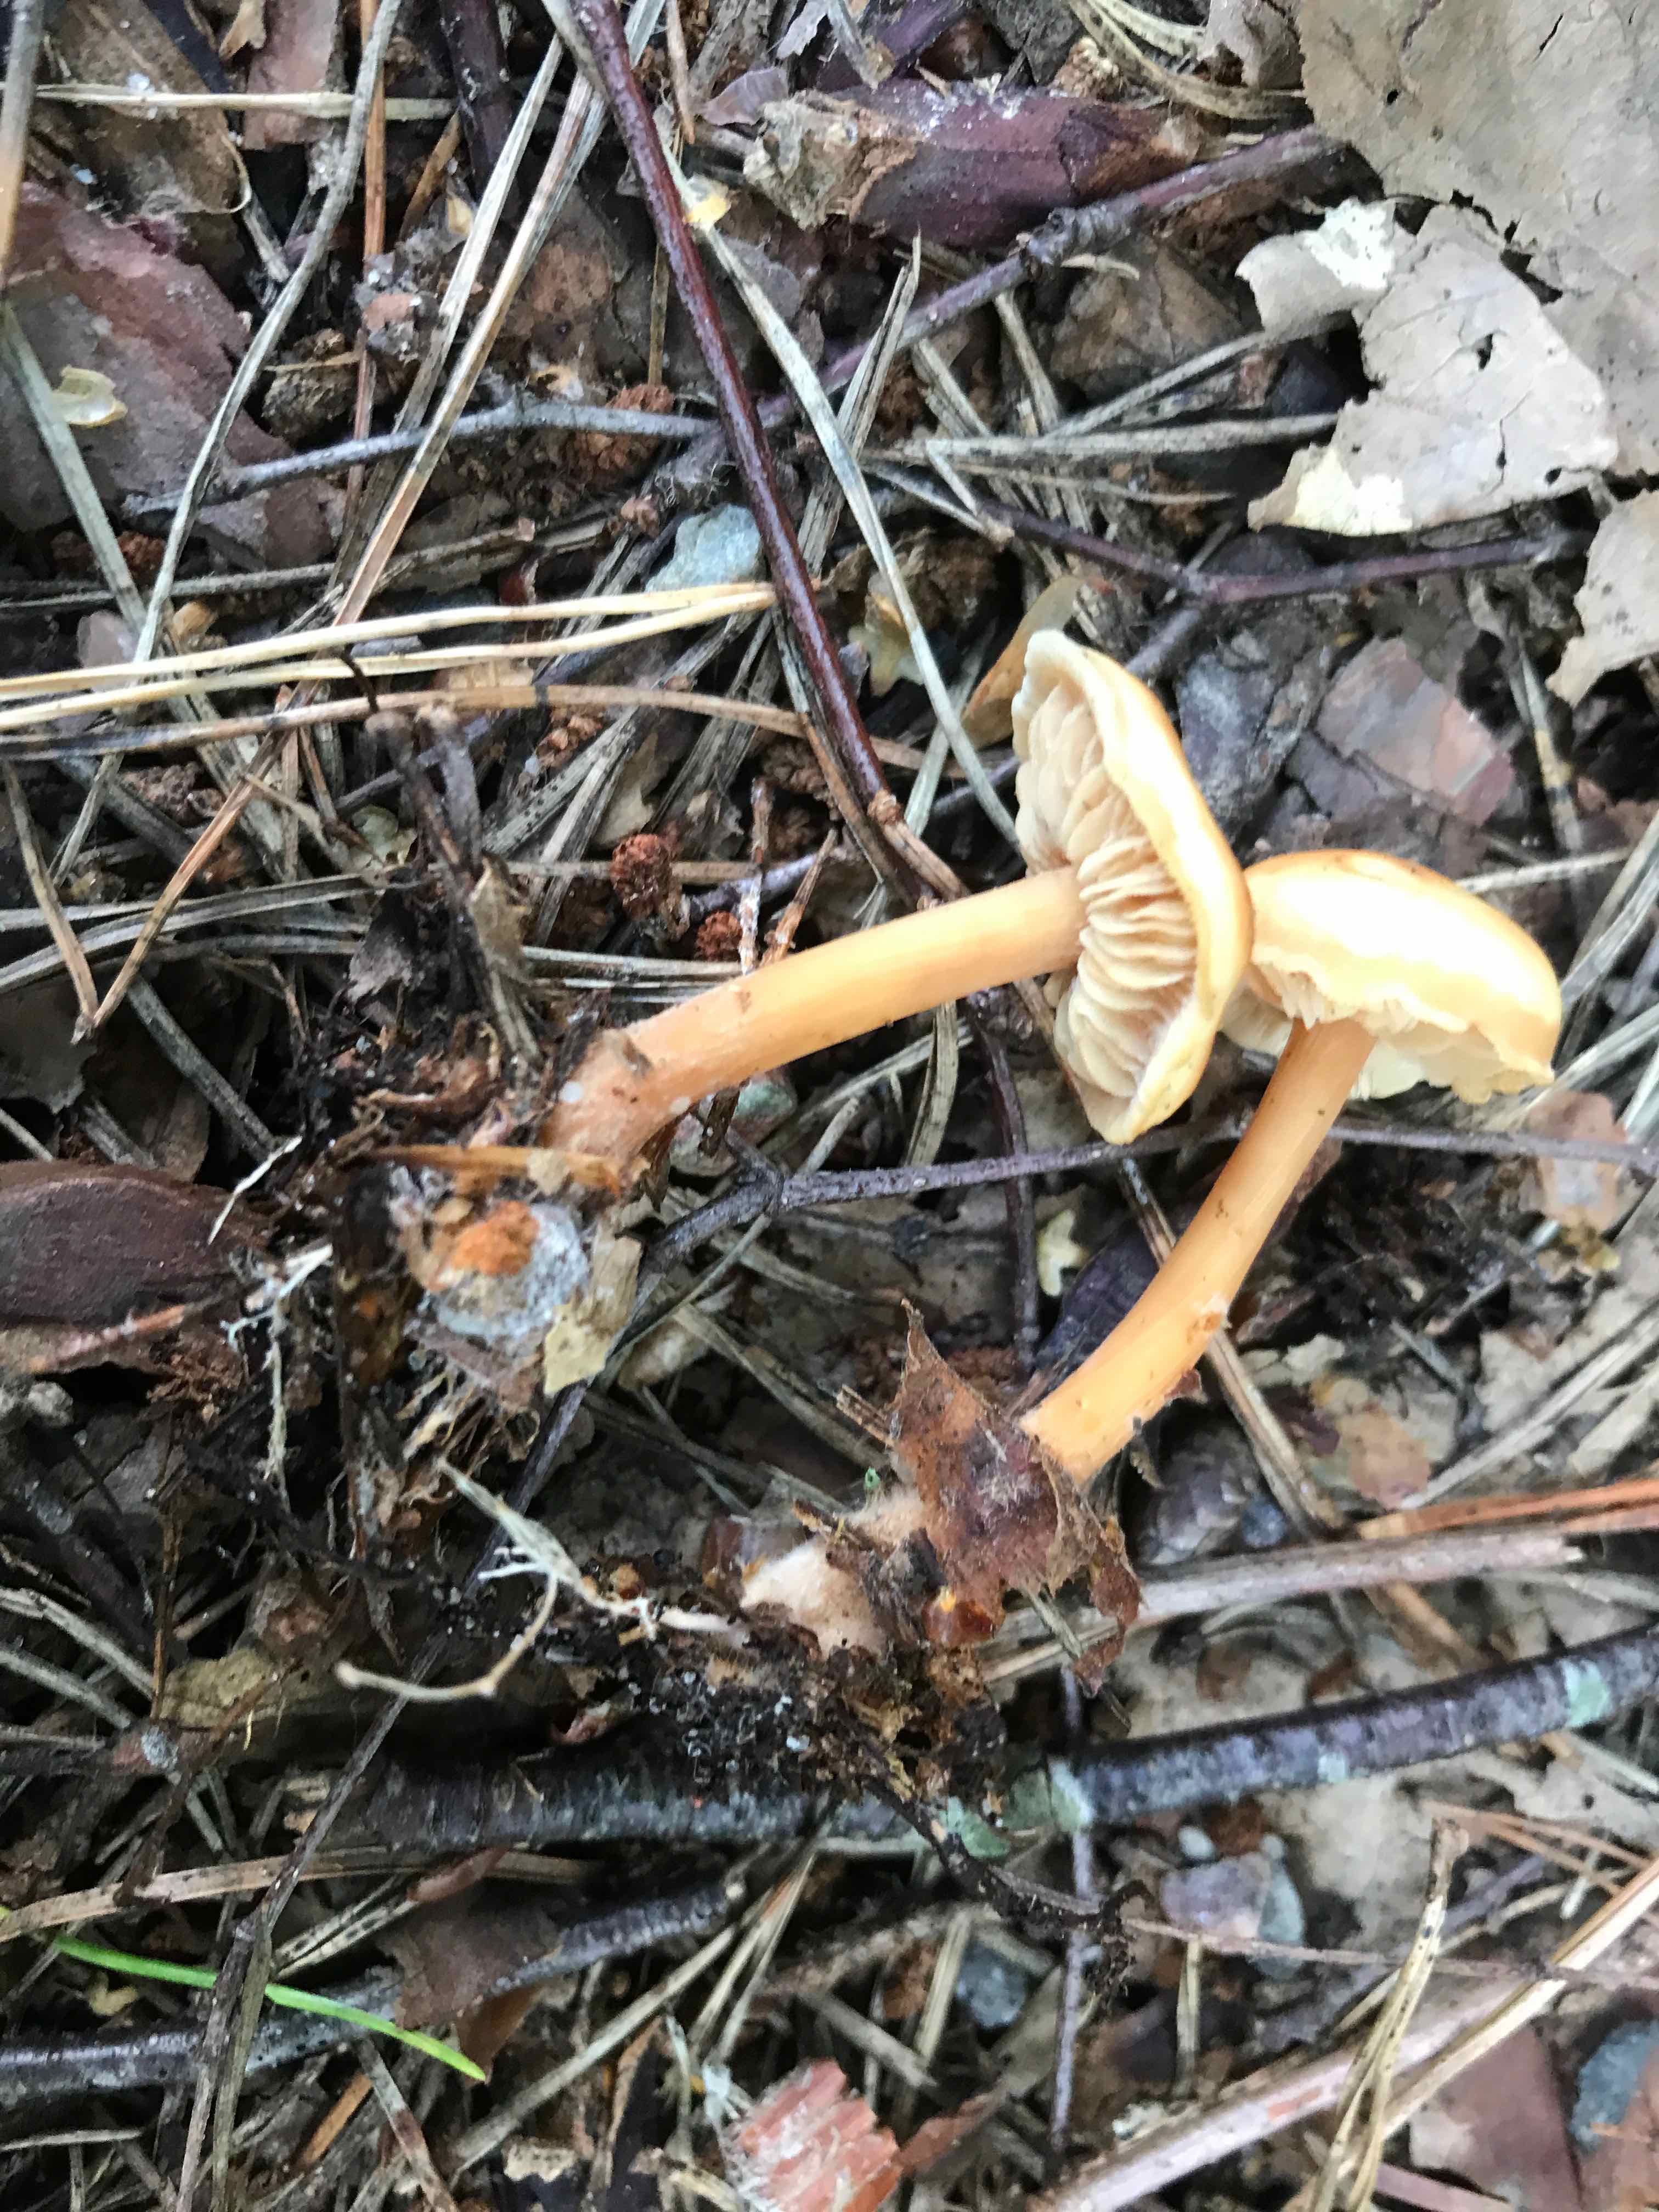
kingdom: Fungi
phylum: Basidiomycota
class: Agaricomycetes
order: Agaricales
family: Omphalotaceae
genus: Gymnopus
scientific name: Gymnopus dryophilus
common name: løv-fladhat
